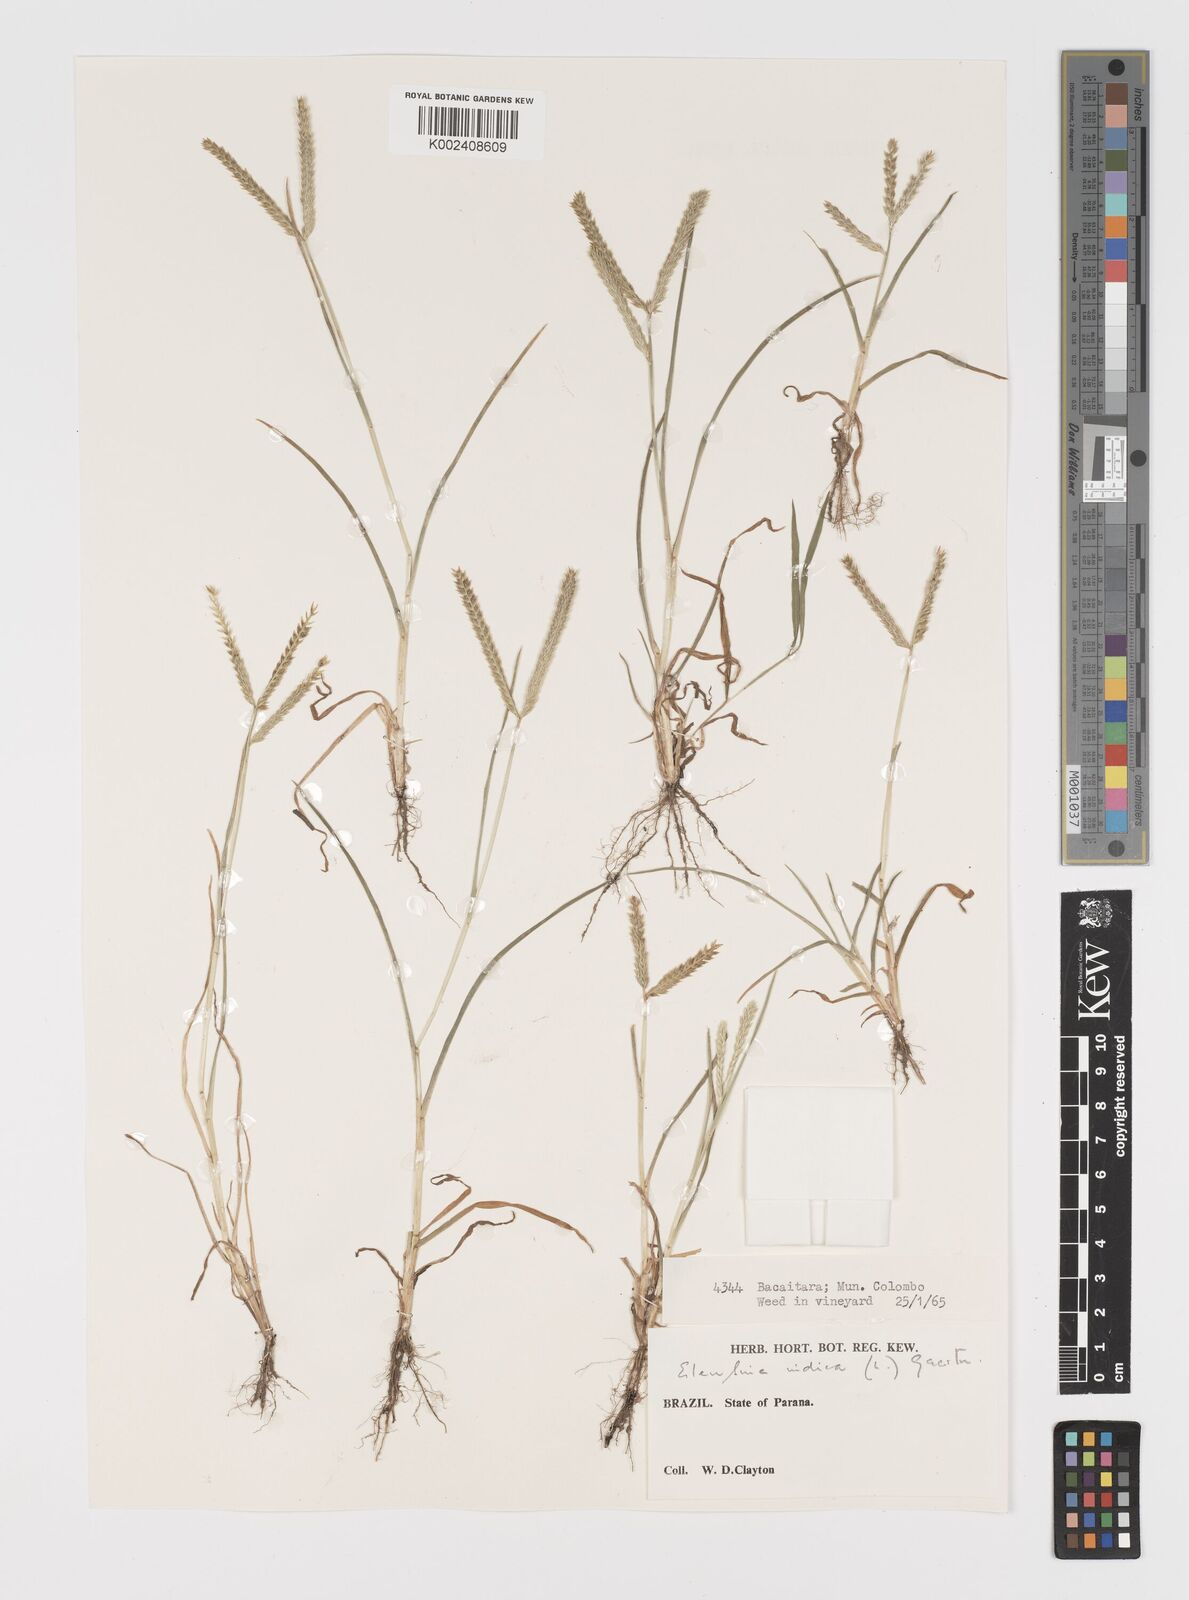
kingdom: Plantae
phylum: Tracheophyta
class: Liliopsida
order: Poales
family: Poaceae
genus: Eleusine
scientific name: Eleusine indica
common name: Yard-grass
